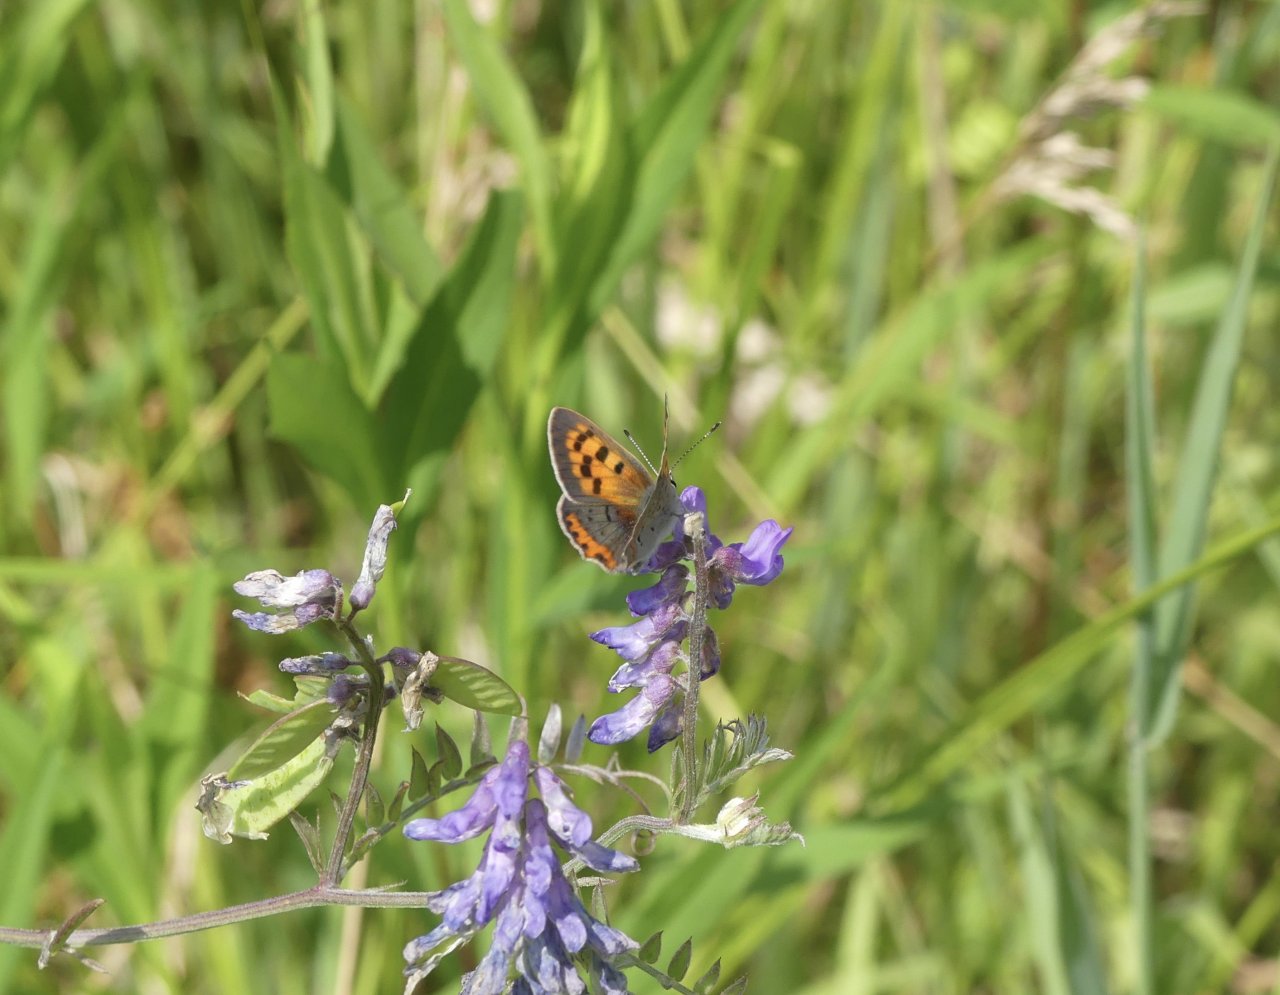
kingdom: Animalia
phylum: Arthropoda
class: Insecta
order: Lepidoptera
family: Lycaenidae
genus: Lycaena
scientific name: Lycaena phlaeas
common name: American Copper
